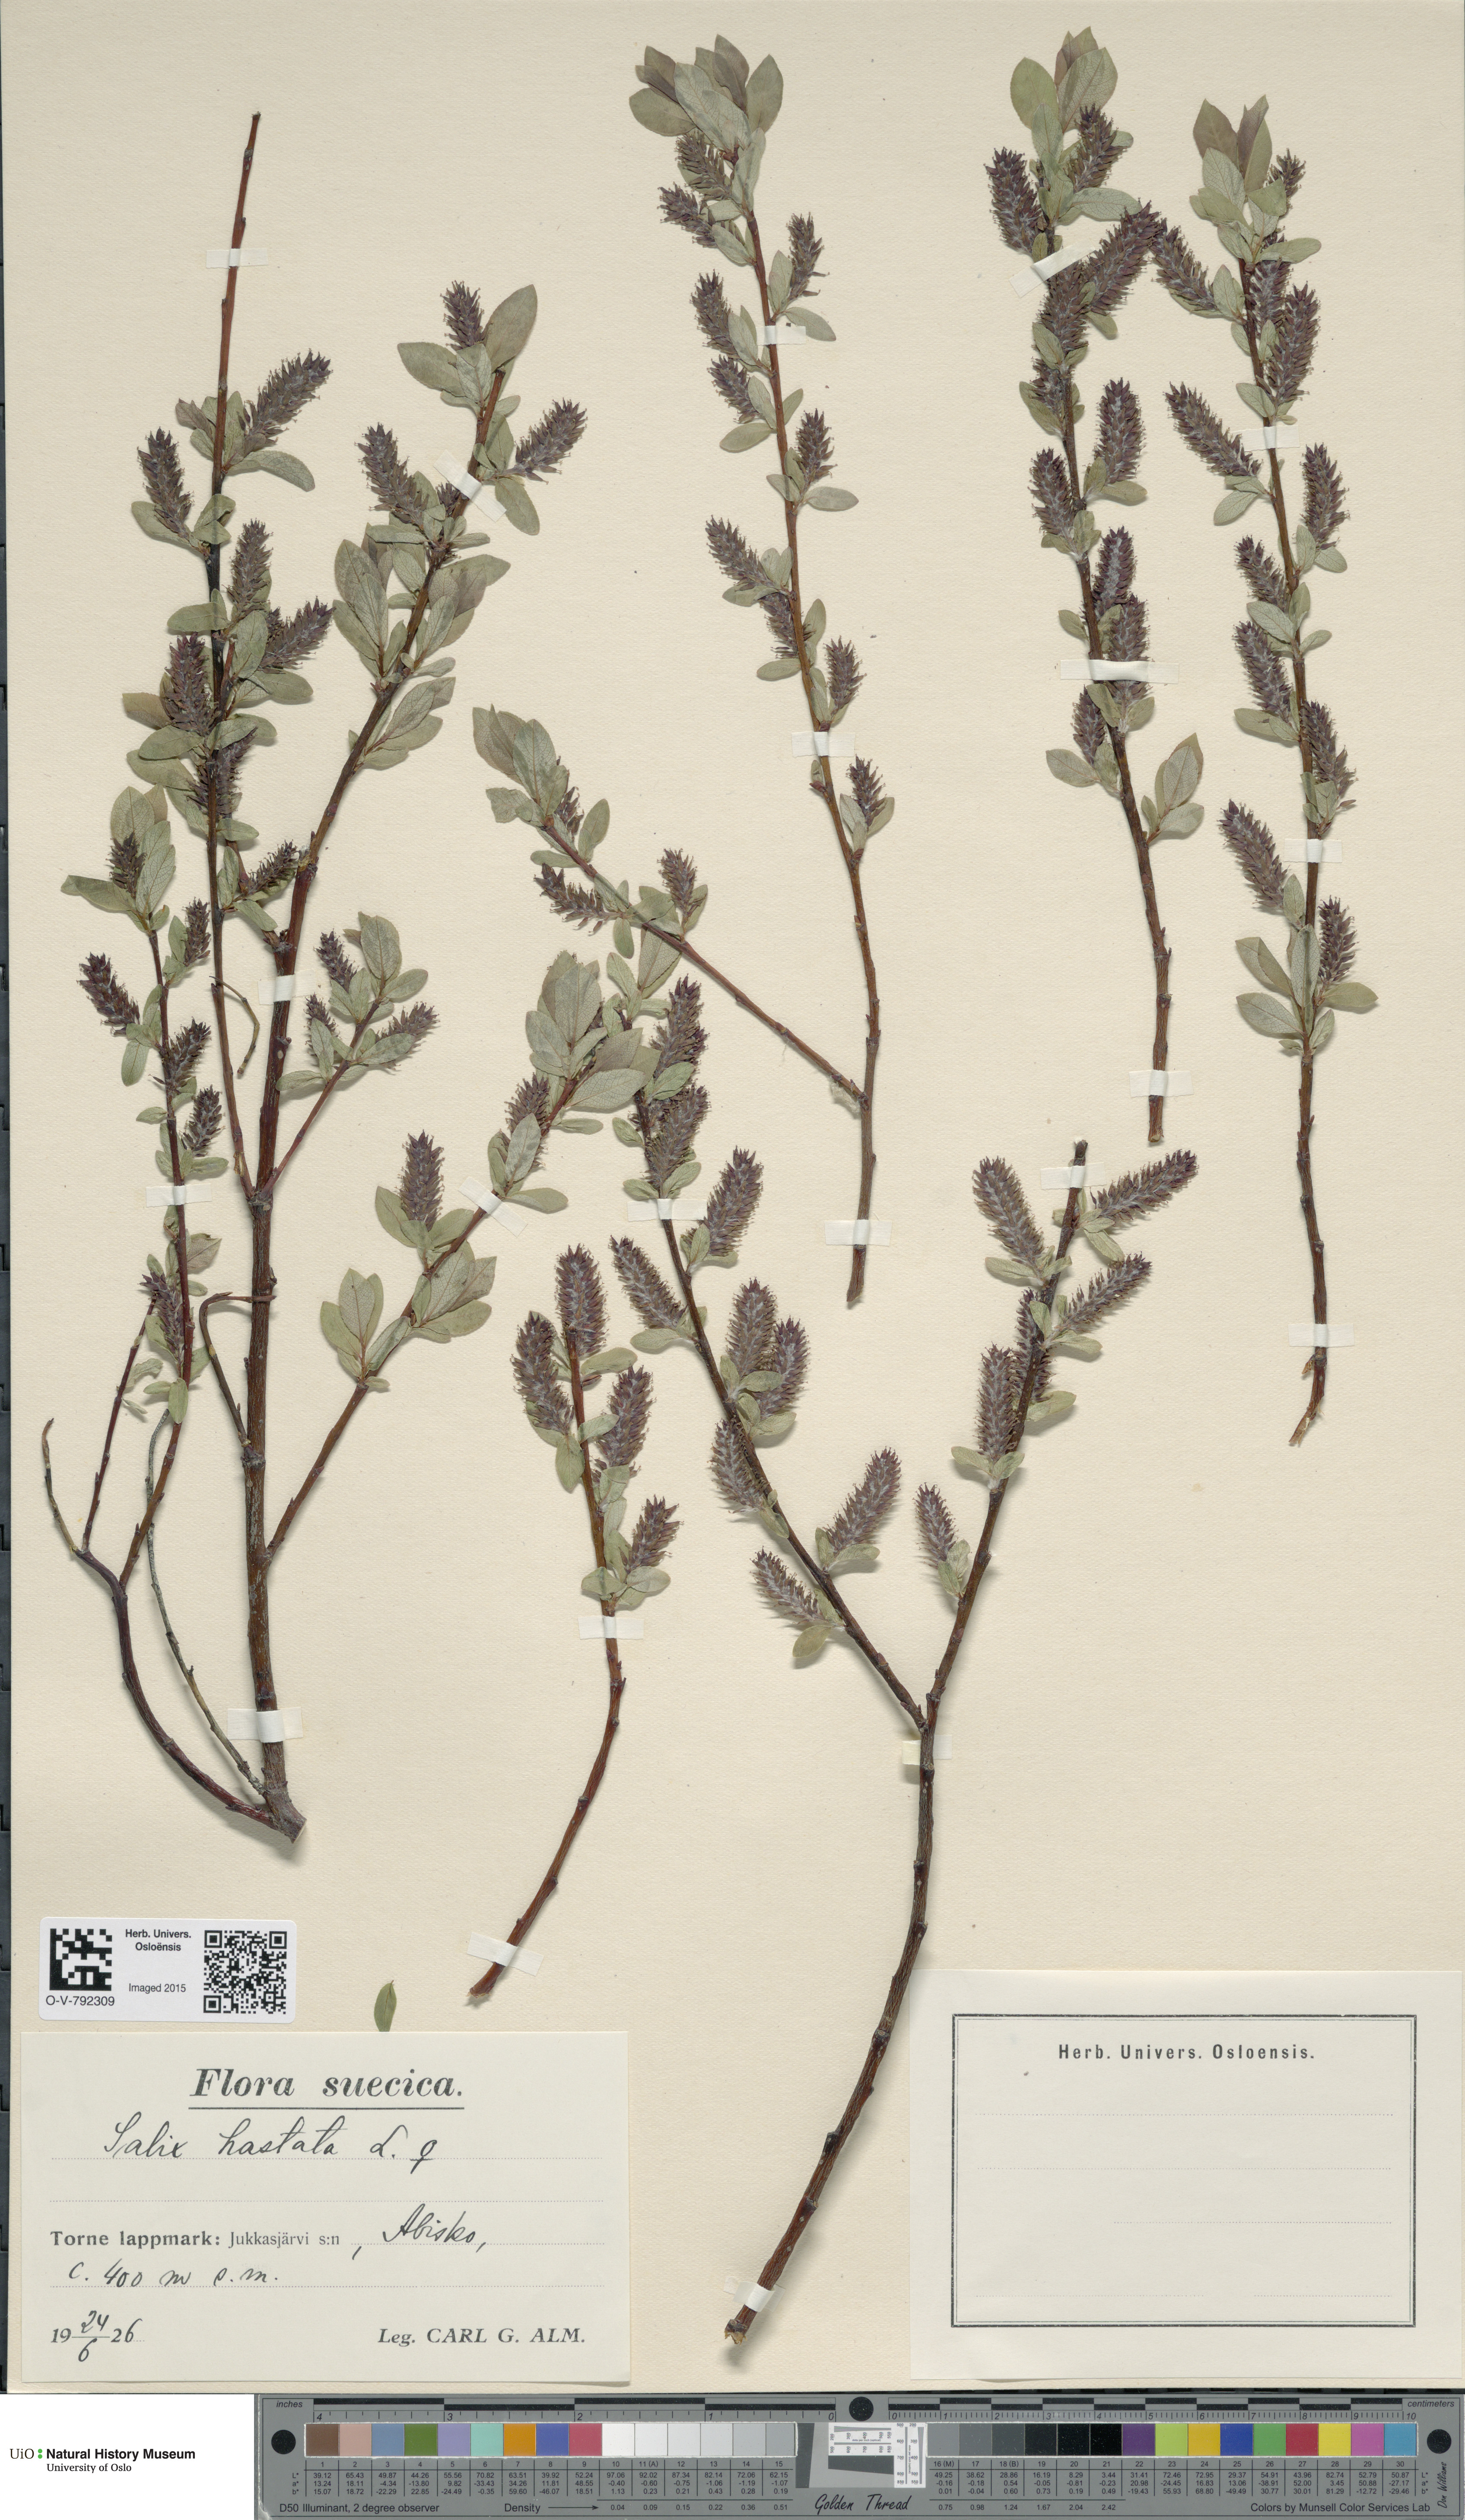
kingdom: Plantae
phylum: Tracheophyta
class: Magnoliopsida
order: Malpighiales
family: Salicaceae
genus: Salix
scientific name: Salix hastata
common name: Halberd willow
